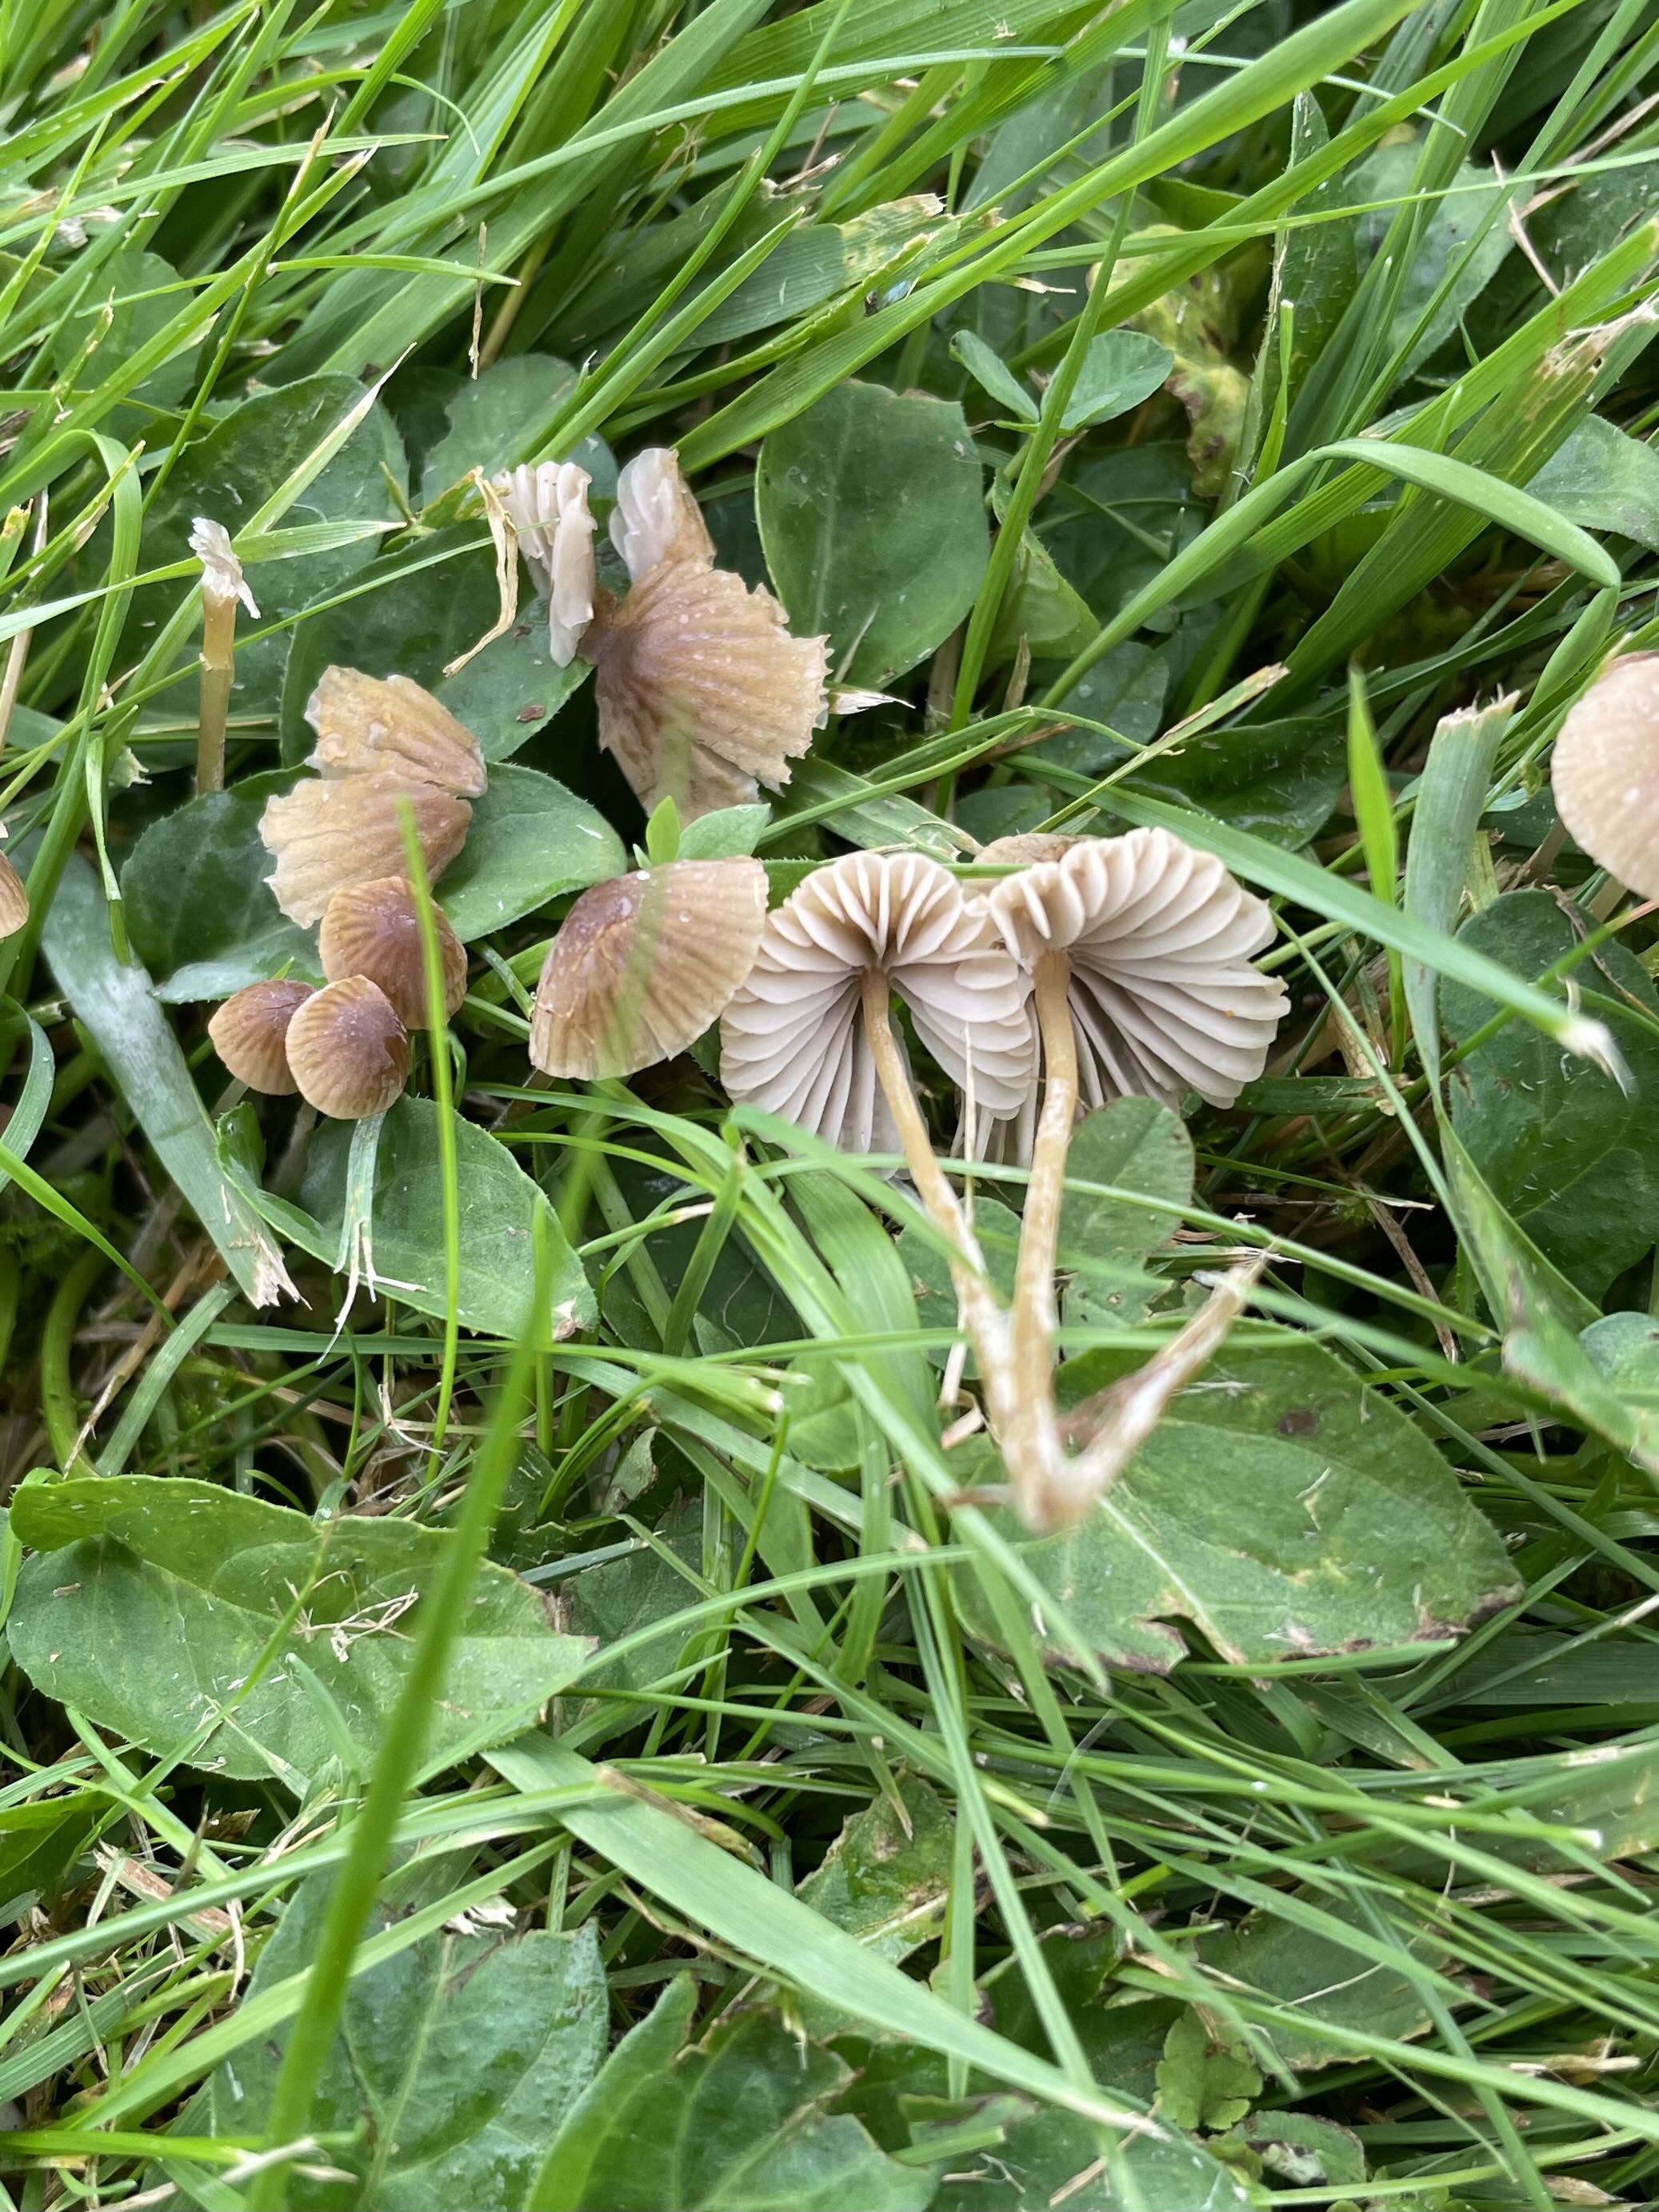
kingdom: Fungi
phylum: Basidiomycota
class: Agaricomycetes
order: Agaricales
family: Mycenaceae
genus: Mycena
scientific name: Mycena olivaceomarginata
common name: brunægget huesvamp
